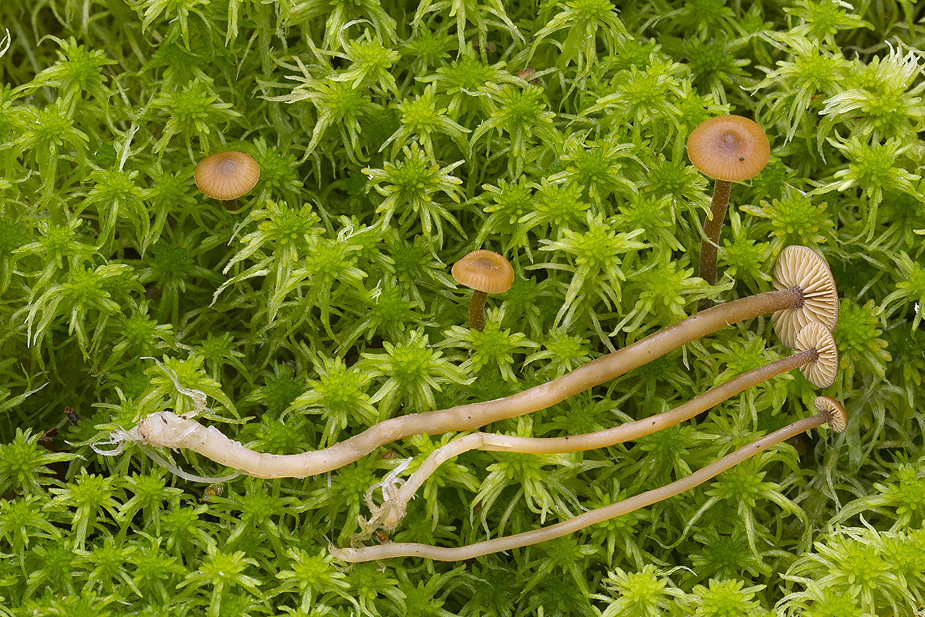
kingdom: Fungi
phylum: Basidiomycota
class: Agaricomycetes
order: Agaricales
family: Hymenogastraceae
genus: Galerina
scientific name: Galerina mairei
